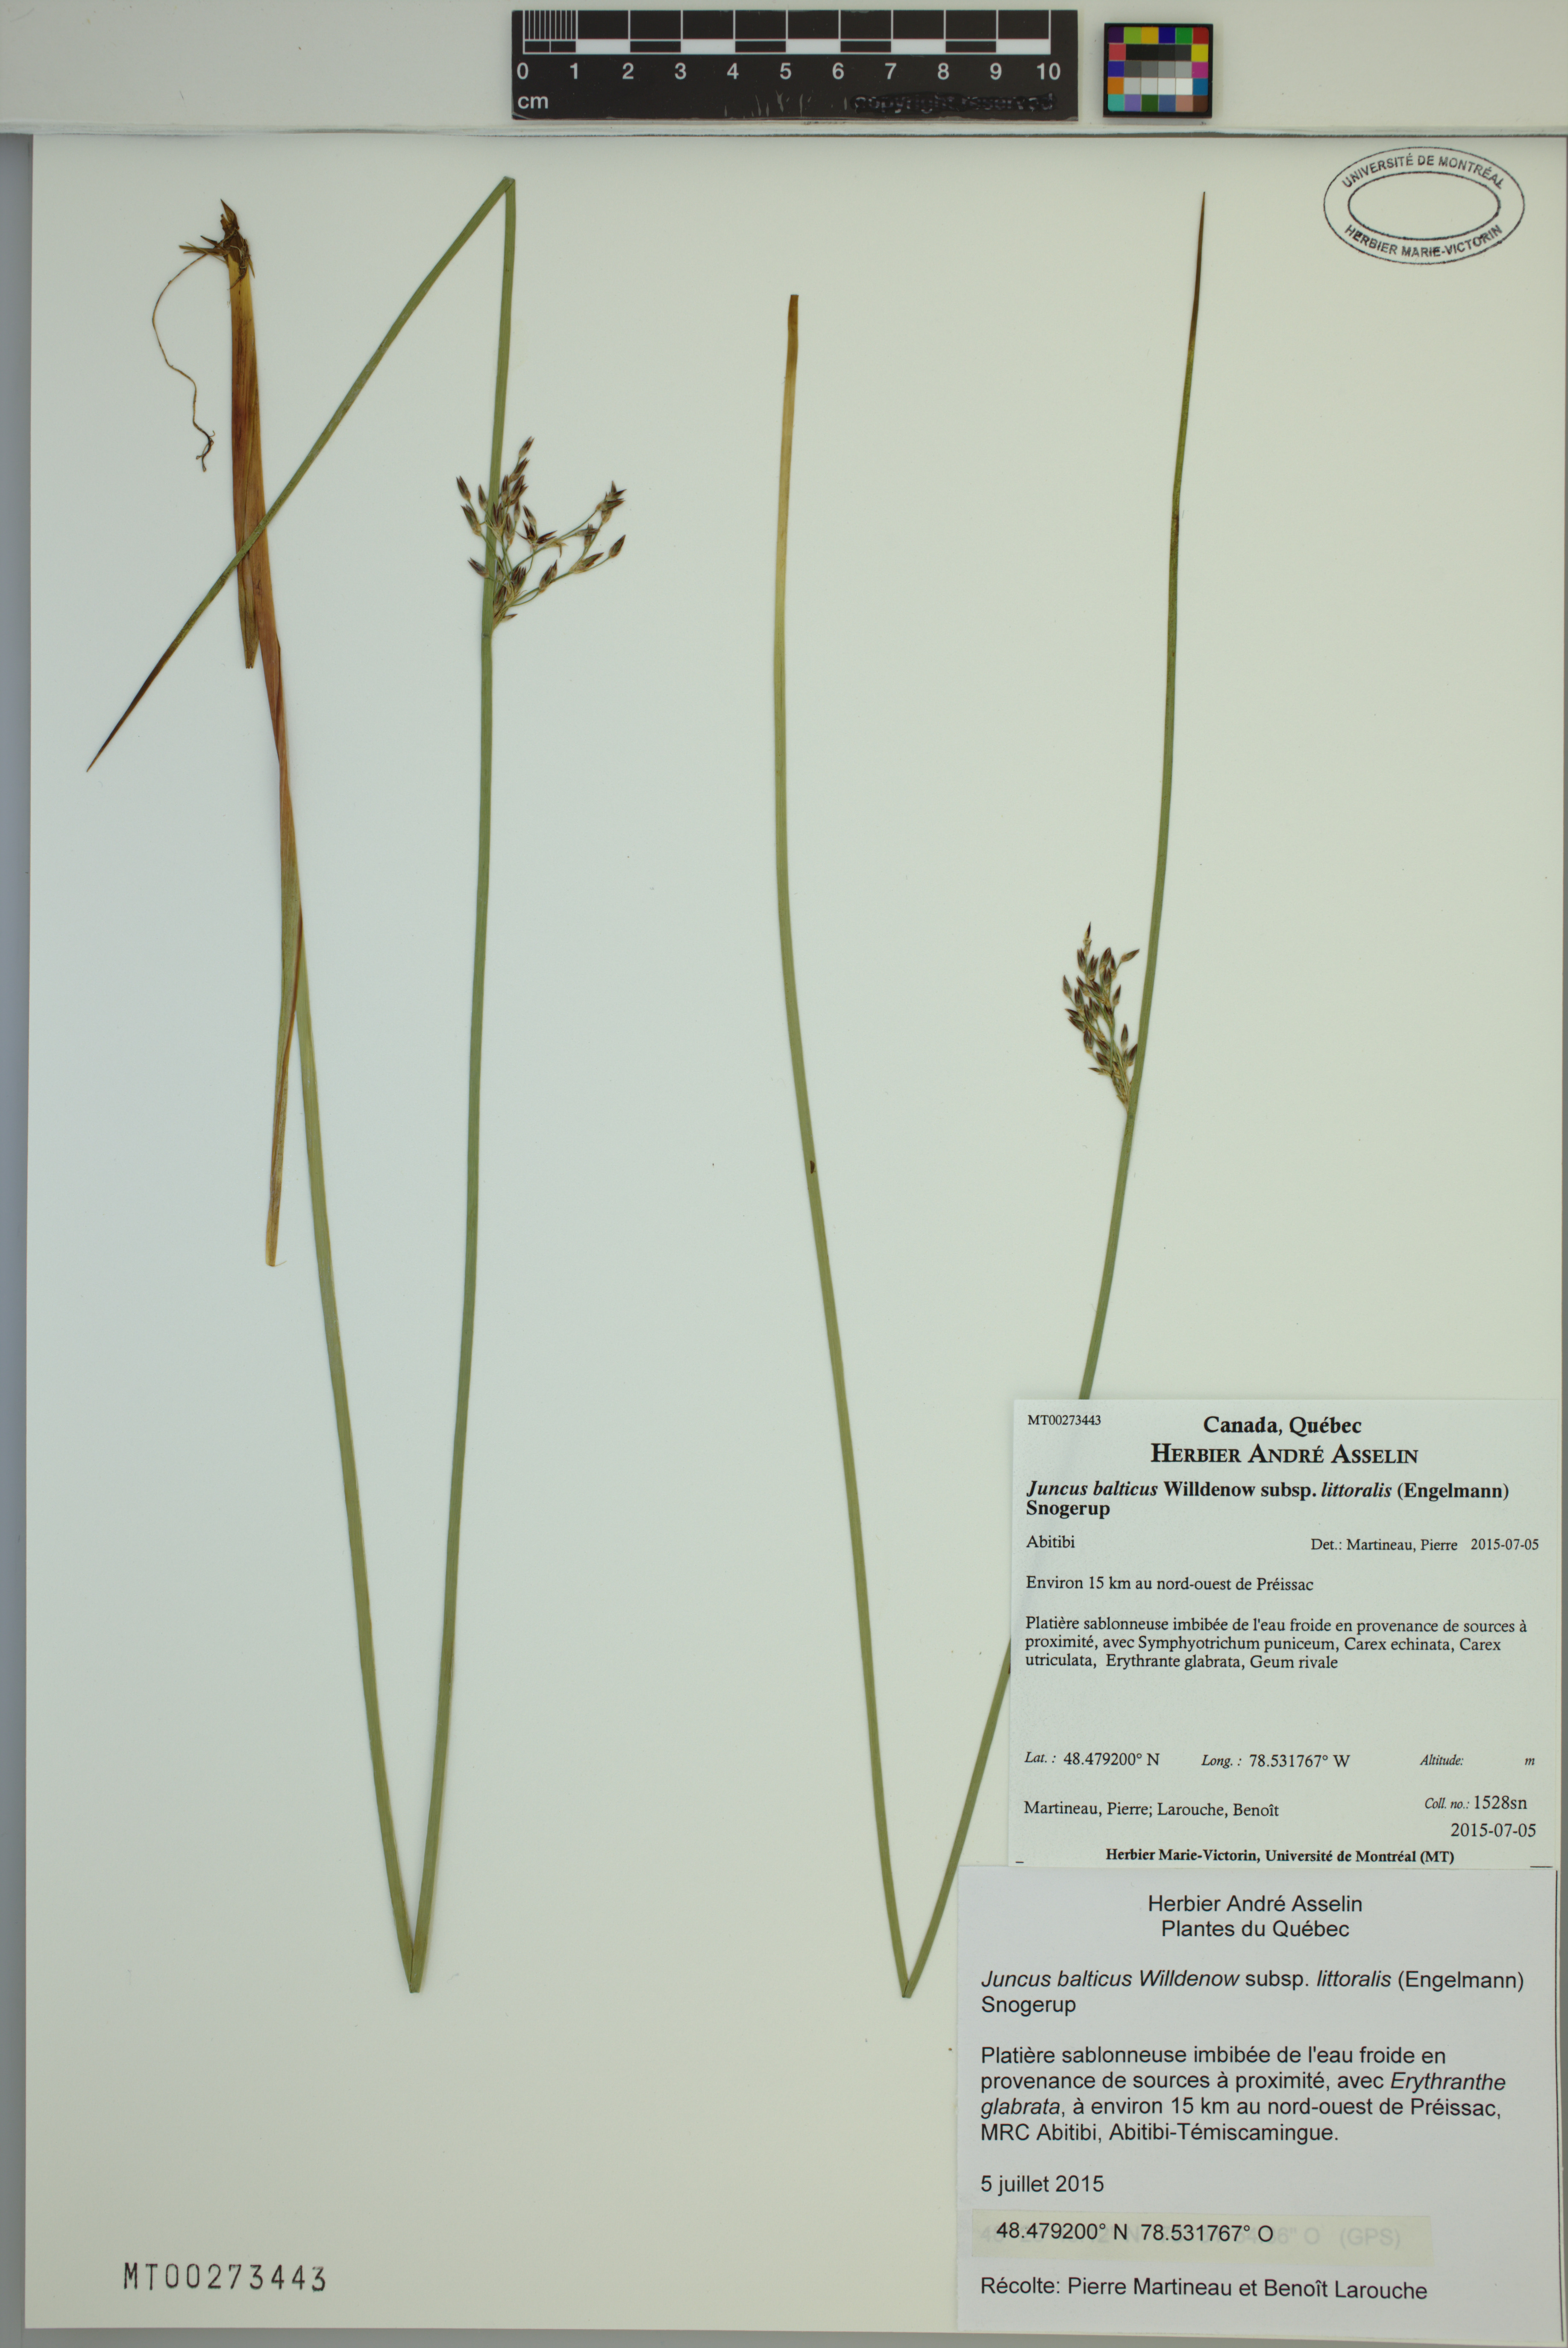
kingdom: Plantae
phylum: Tracheophyta
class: Liliopsida
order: Poales
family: Juncaceae
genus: Juncus
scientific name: Juncus balticus
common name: Baltic rush
